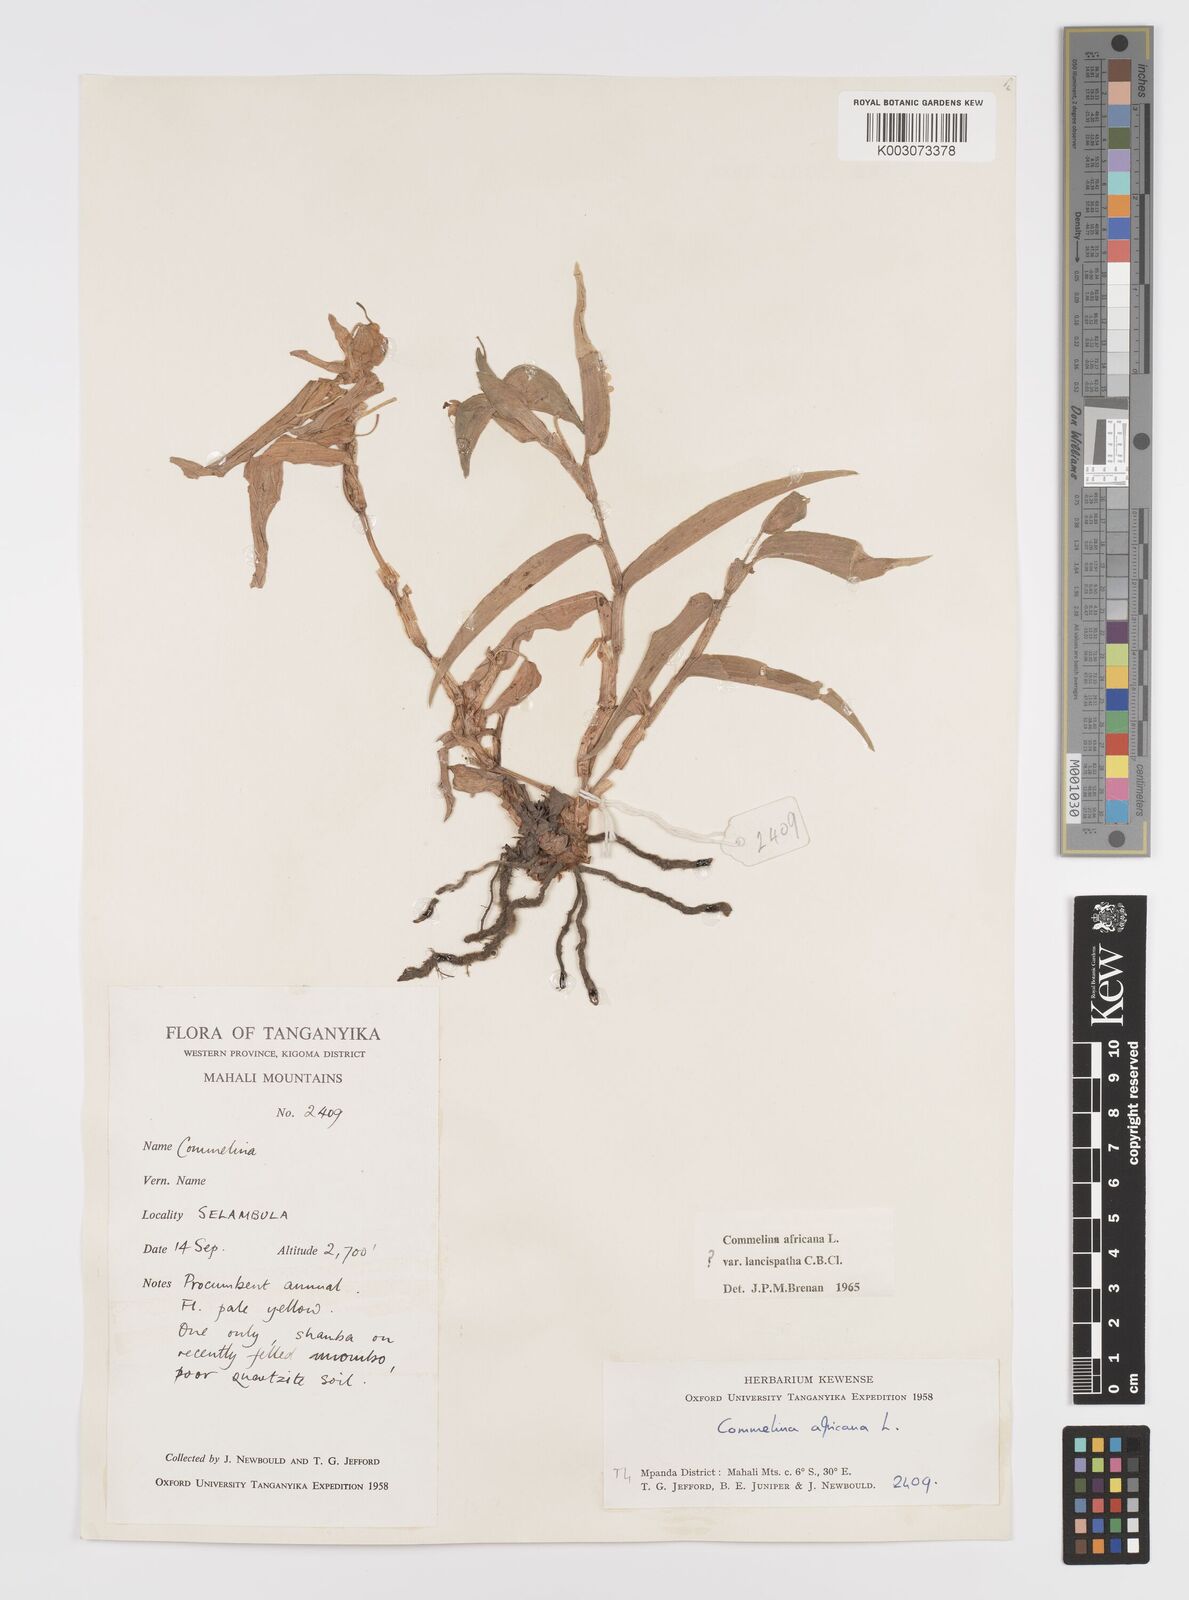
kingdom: Plantae
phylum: Tracheophyta
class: Liliopsida
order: Commelinales
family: Commelinaceae
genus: Commelina
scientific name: Commelina africana
